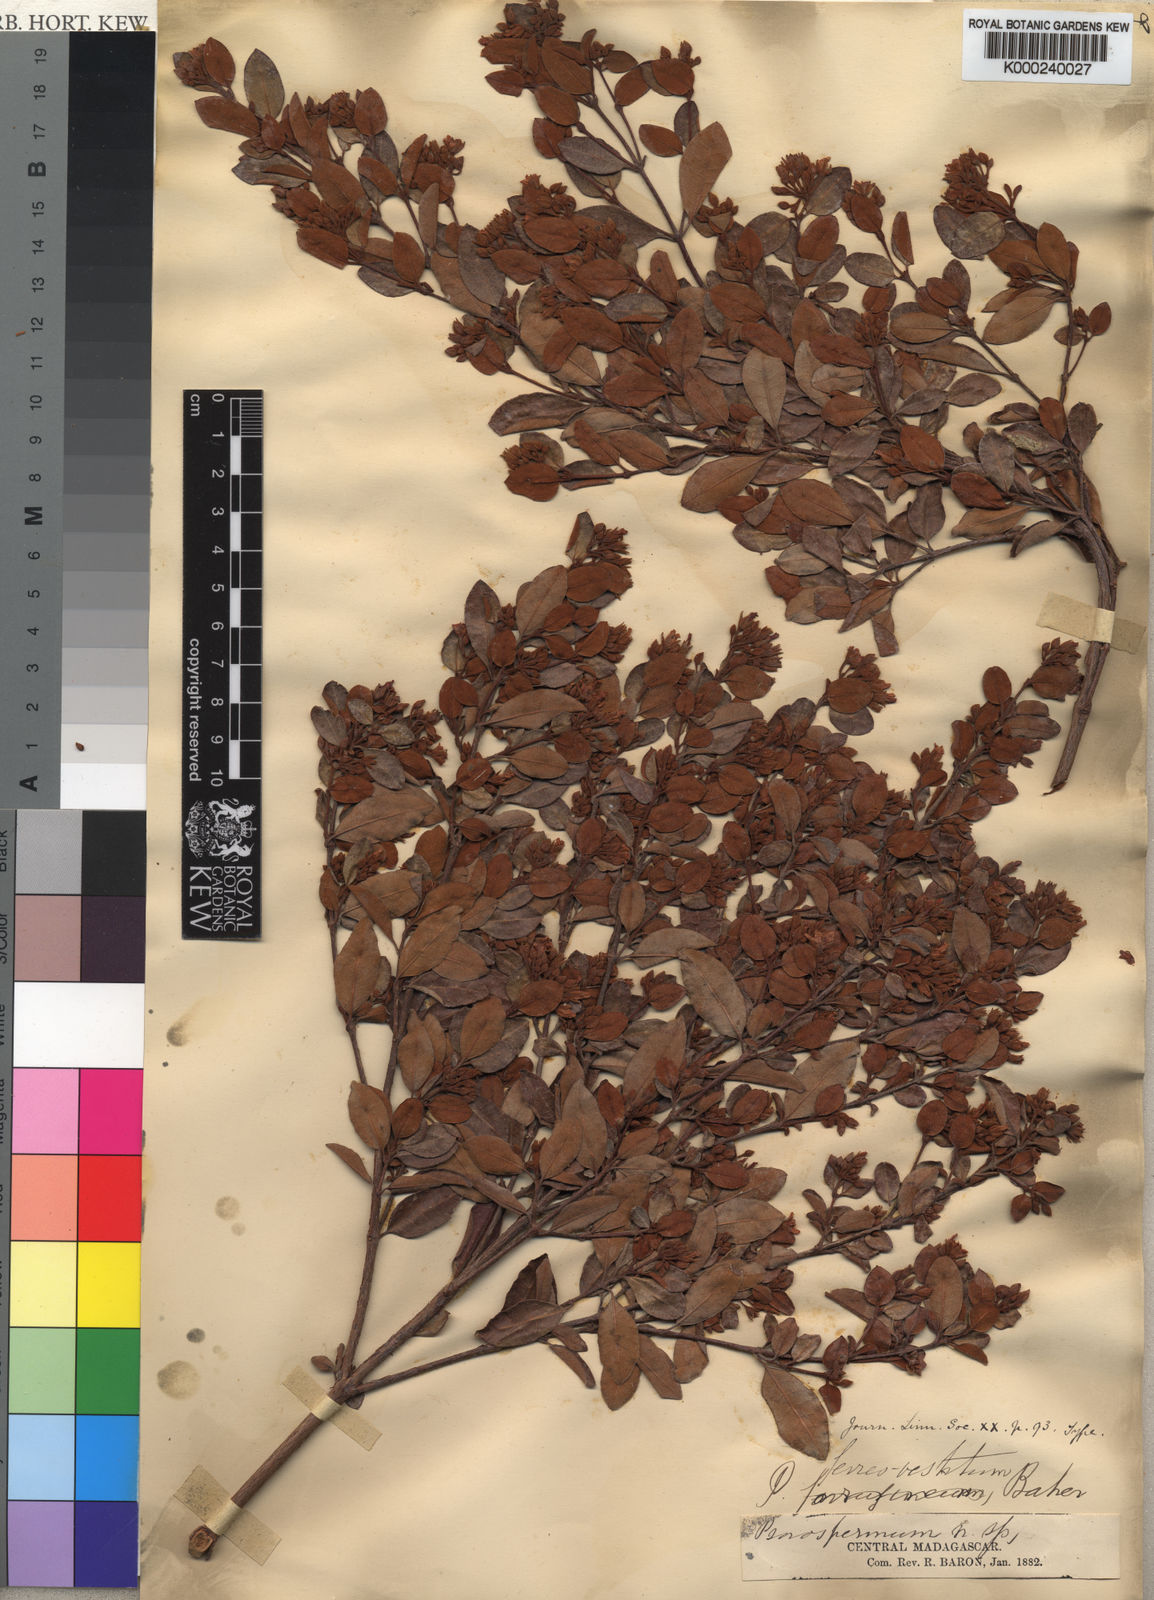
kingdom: Plantae
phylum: Tracheophyta
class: Magnoliopsida
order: Malpighiales
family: Hypericaceae
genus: Psorospermum
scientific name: Psorospermum ferrovestitum
